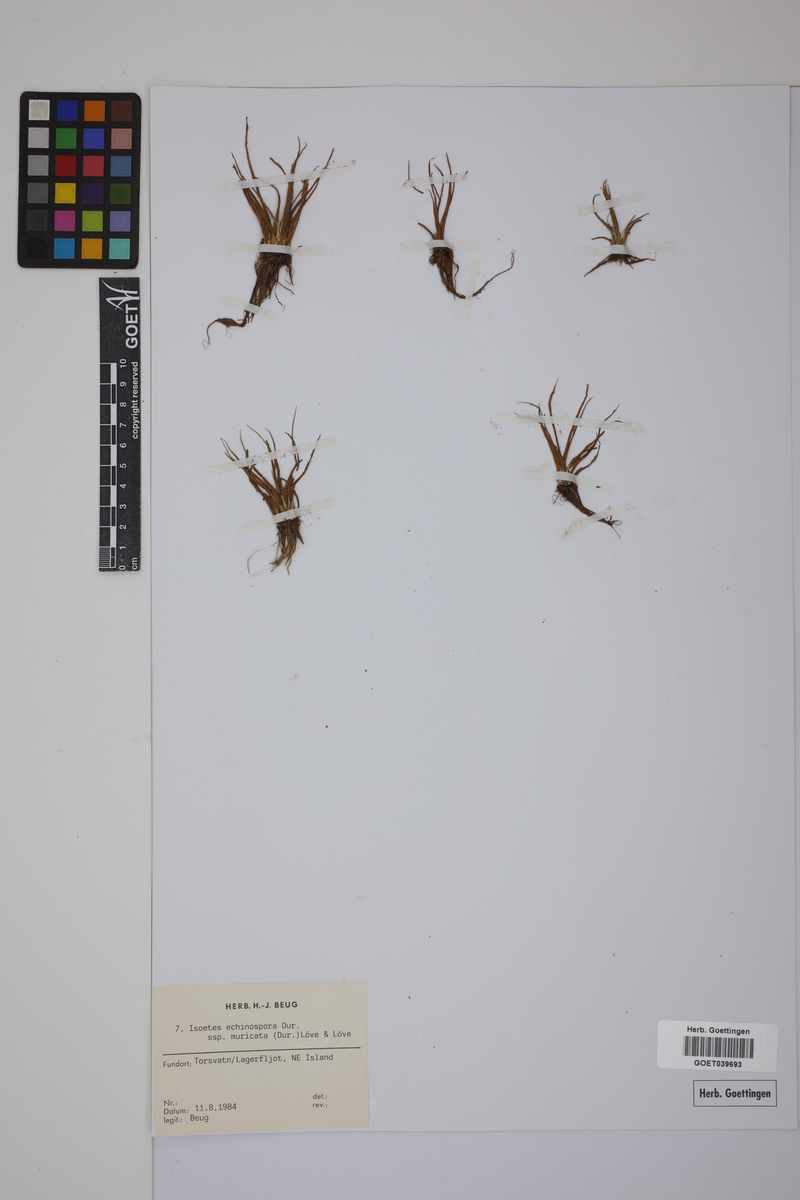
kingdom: Plantae
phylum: Tracheophyta
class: Lycopodiopsida
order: Isoetales
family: Isoetaceae
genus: Isoetes
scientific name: Isoetes echinospora
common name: Spring quillwort
